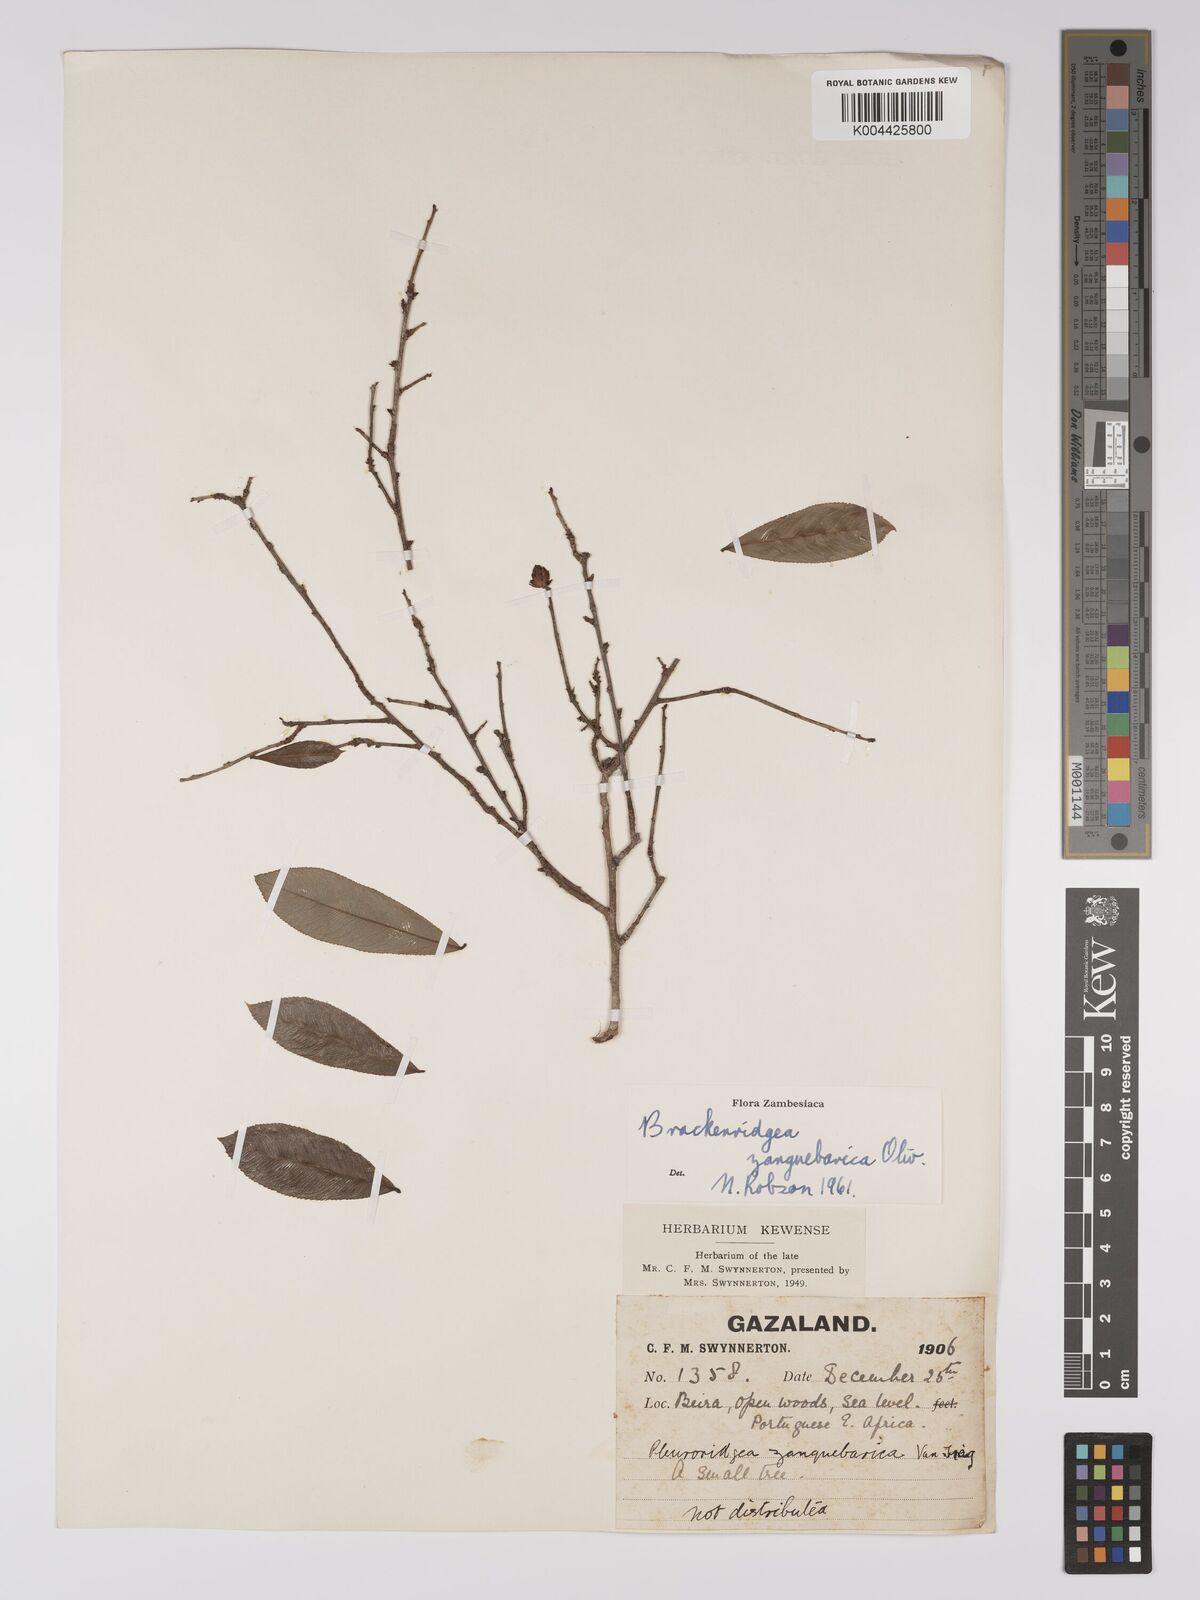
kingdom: Plantae
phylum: Tracheophyta
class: Magnoliopsida
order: Malpighiales
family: Ochnaceae
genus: Brackenridgea
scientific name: Brackenridgea zanguebarica
